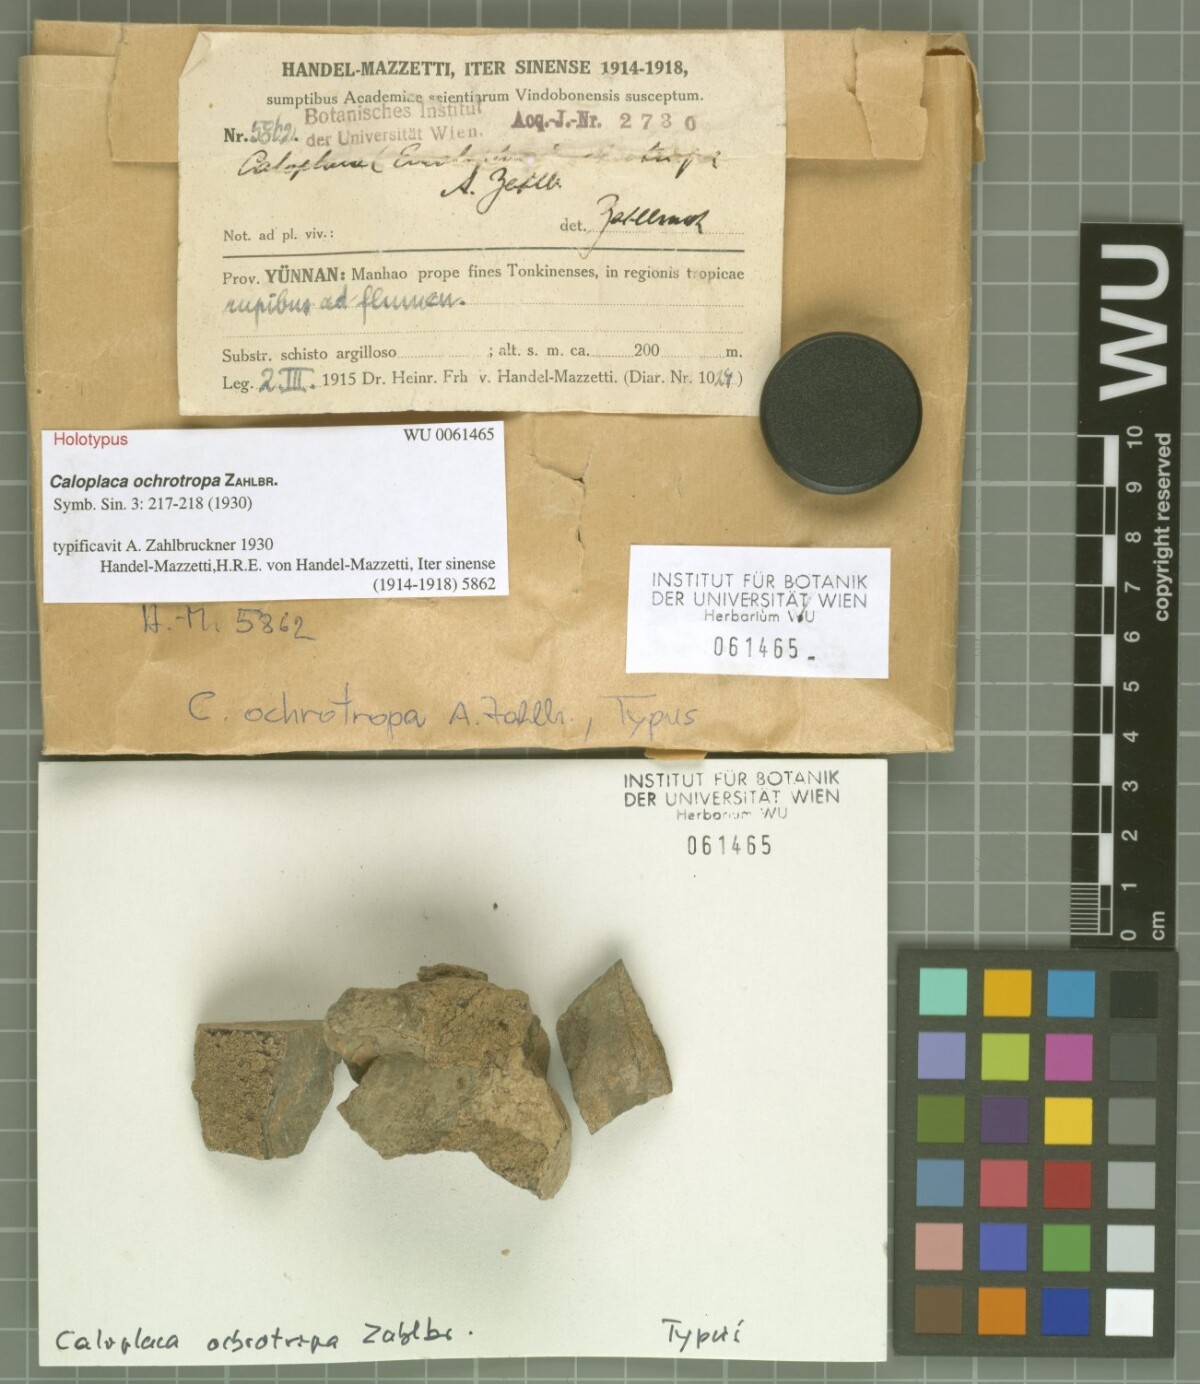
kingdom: Fungi
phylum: Ascomycota
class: Lecanoromycetes
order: Teloschistales
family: Teloschistaceae
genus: Caloplaca
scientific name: Caloplaca
